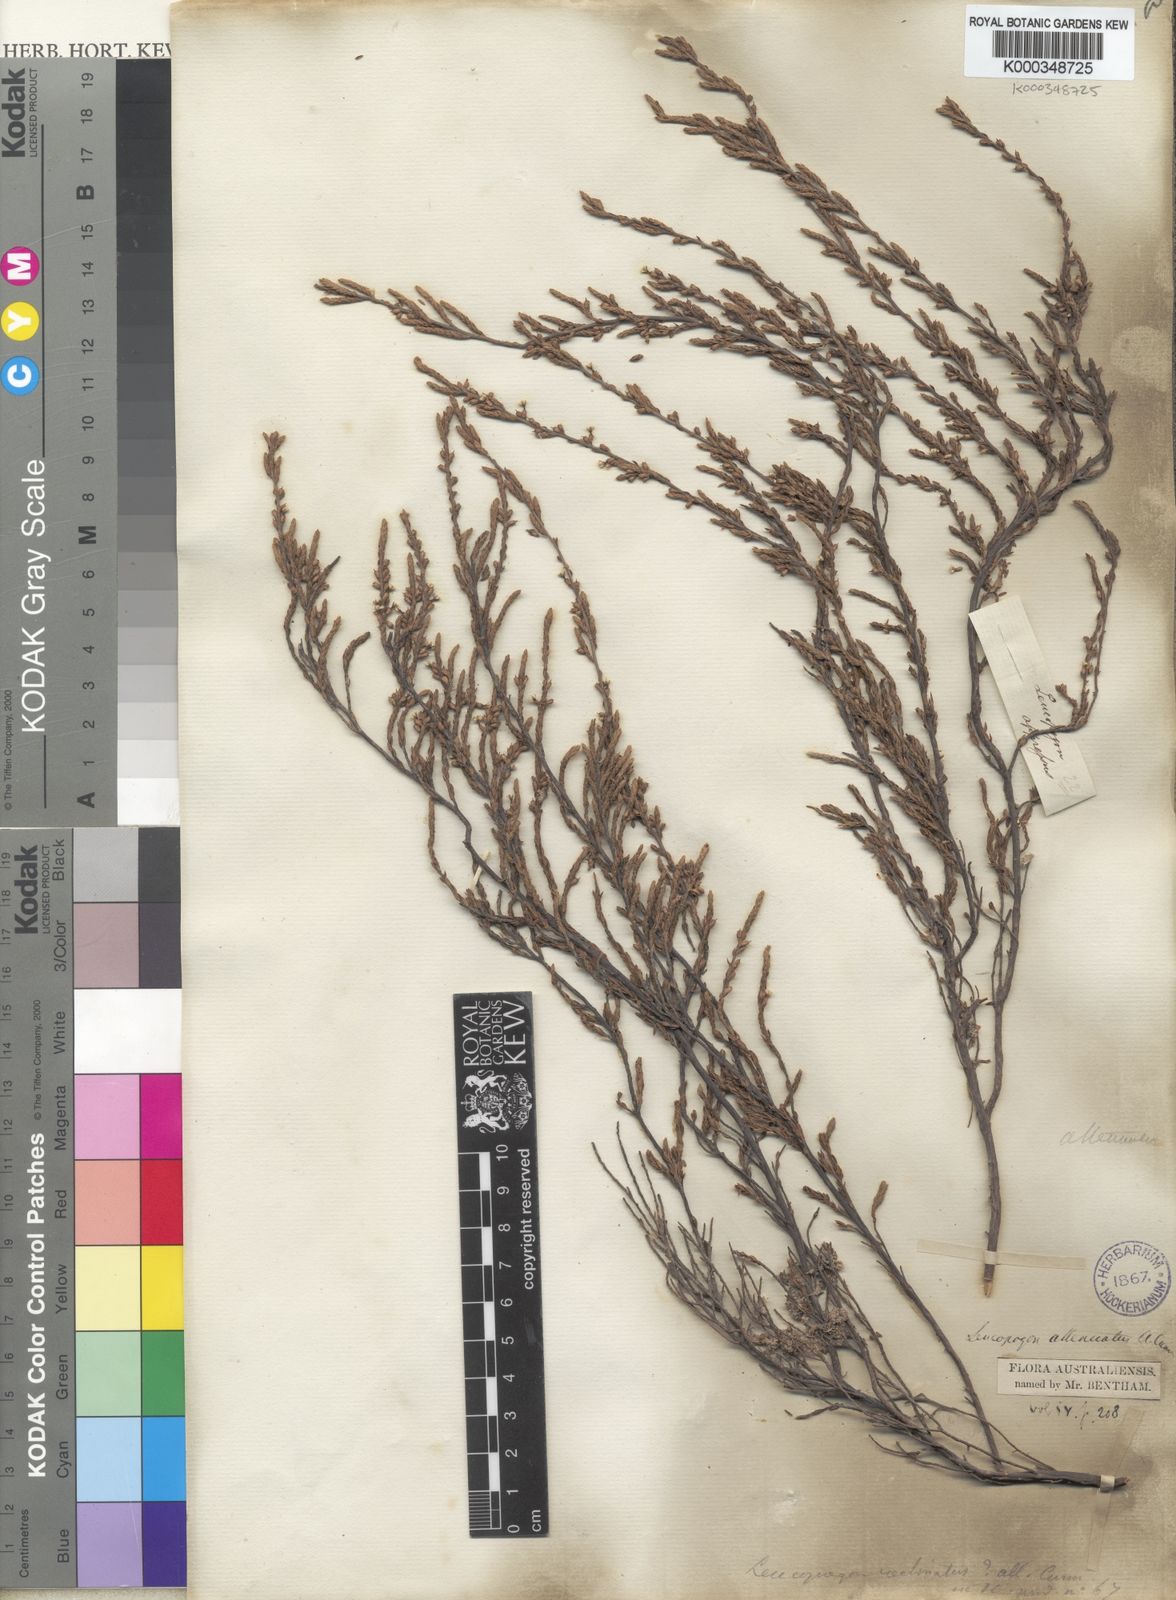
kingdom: Plantae
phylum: Tracheophyta
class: Magnoliopsida
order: Ericales
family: Ericaceae
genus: Styphelia
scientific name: Styphelia attenuata
